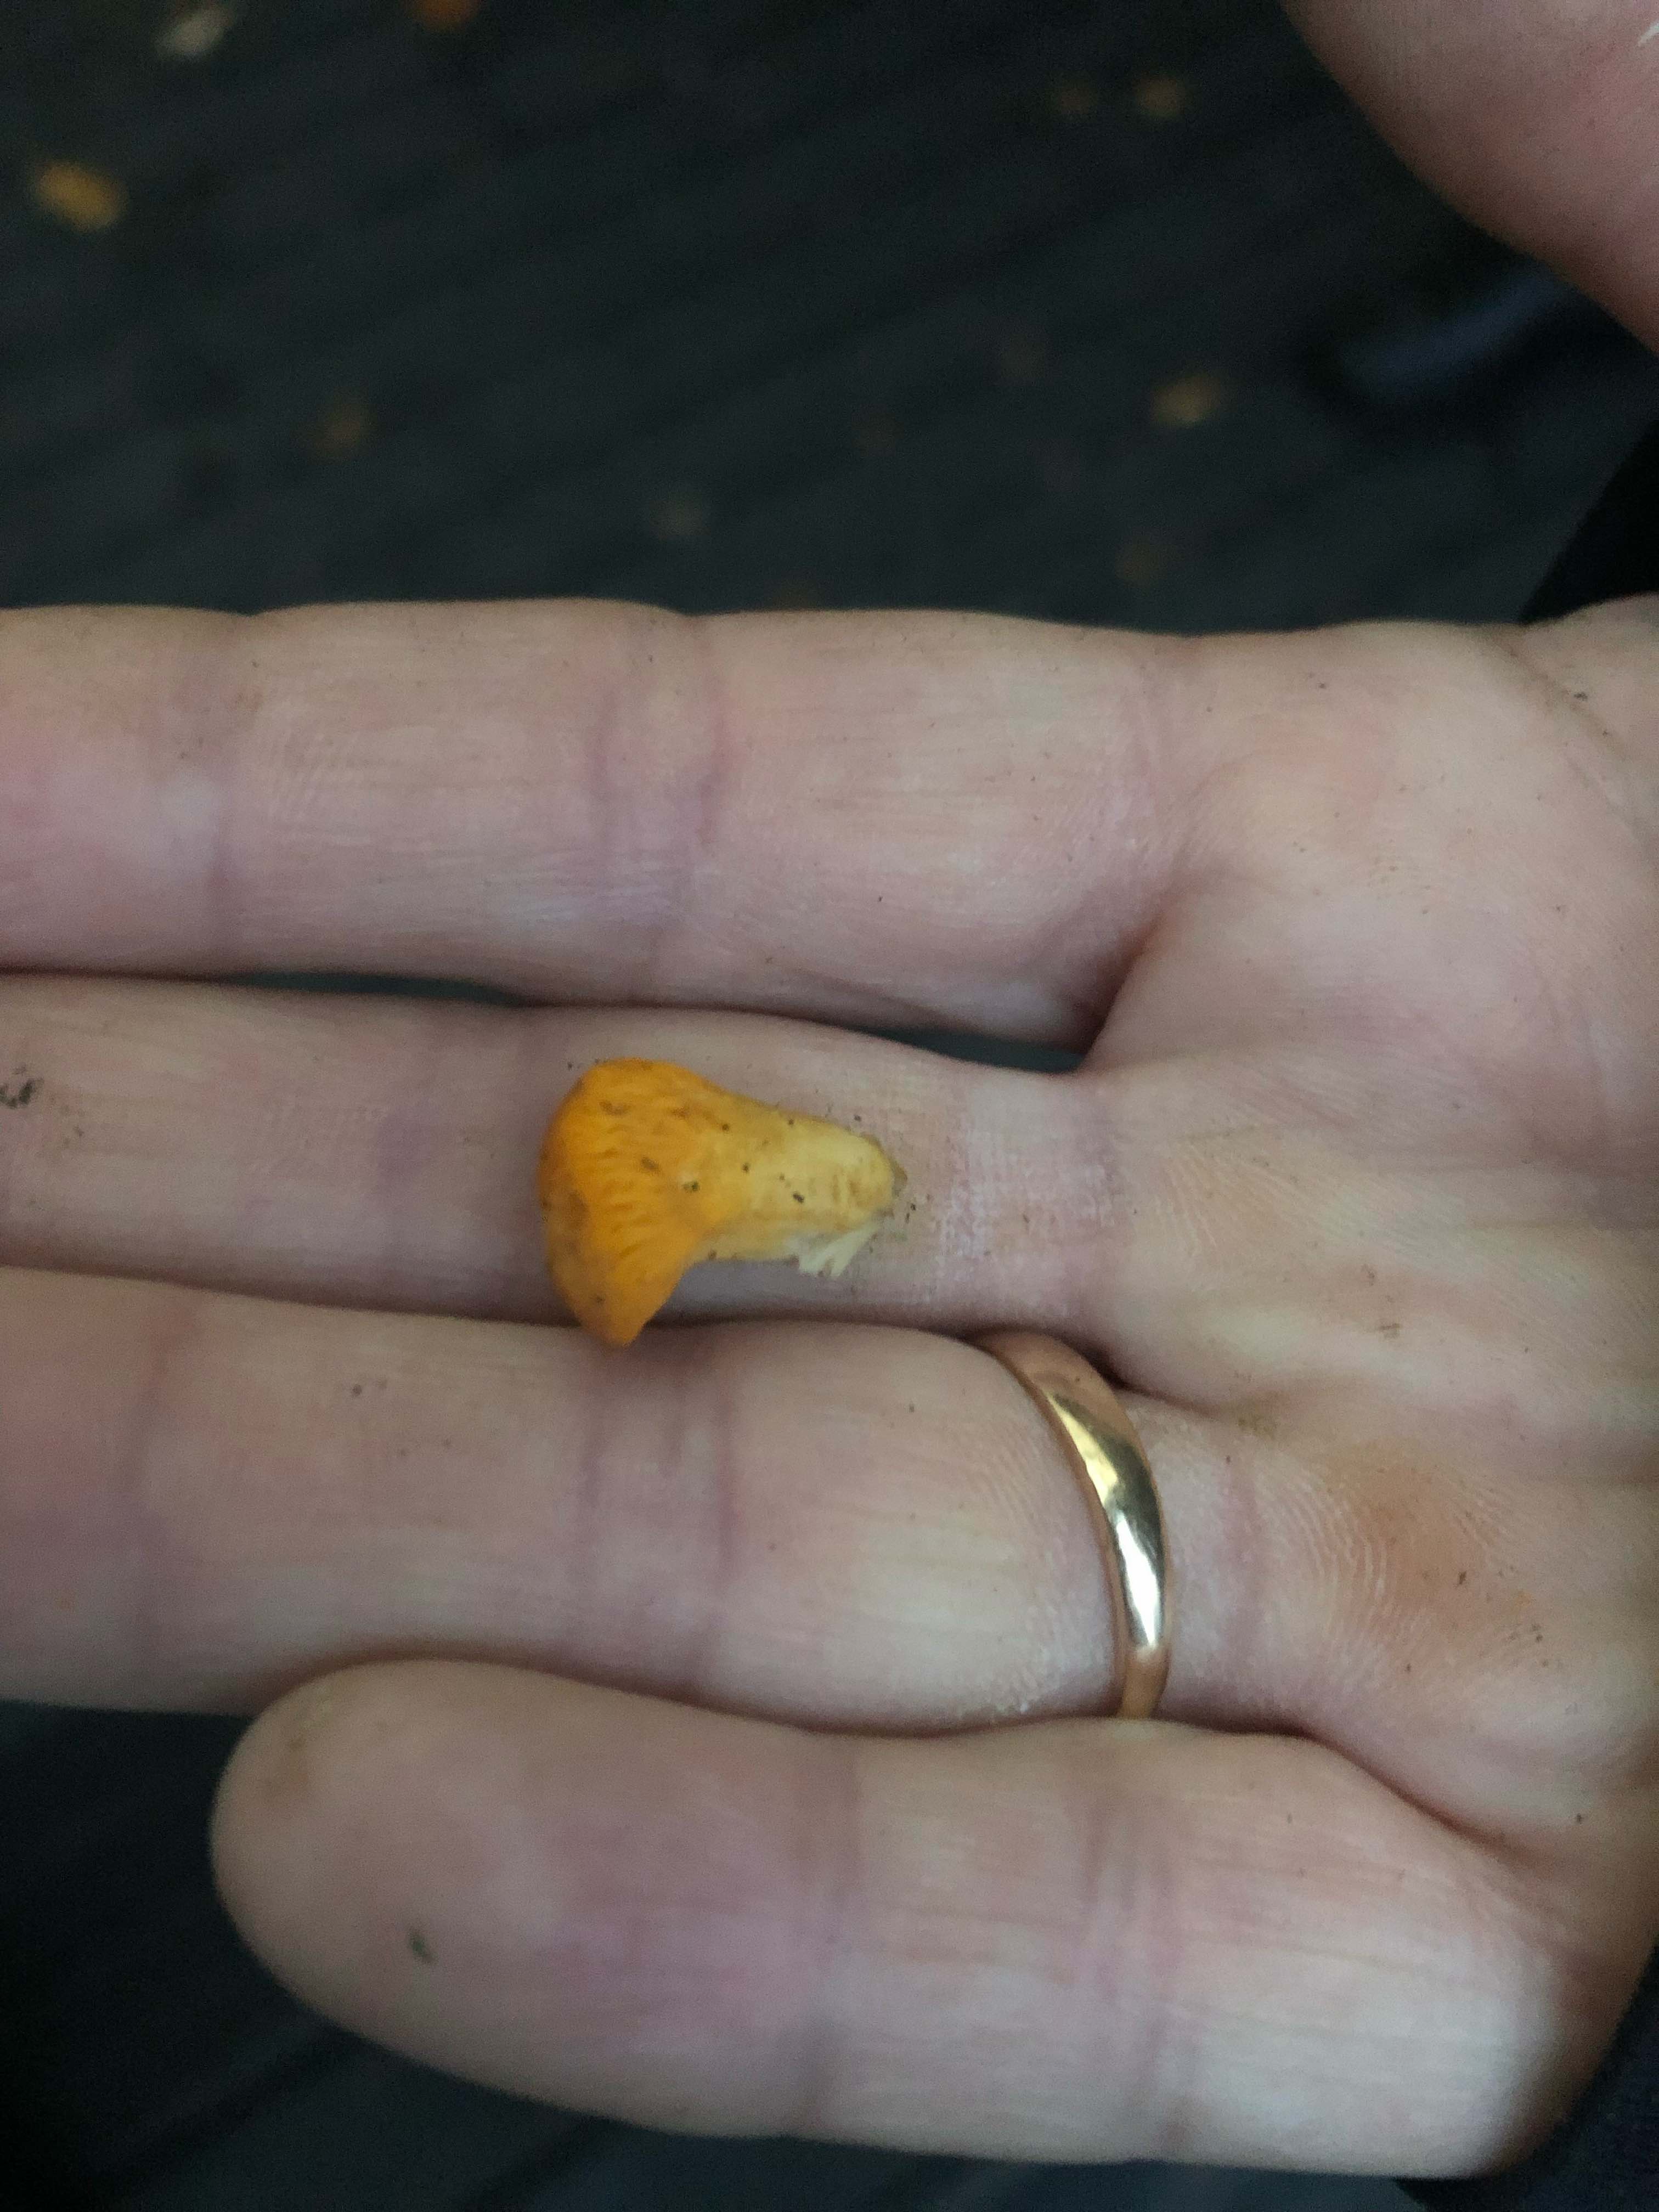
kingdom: Fungi
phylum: Basidiomycota
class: Agaricomycetes
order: Cantharellales
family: Hydnaceae
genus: Cantharellus
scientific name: Cantharellus cibarius
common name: almindelig kantarel
